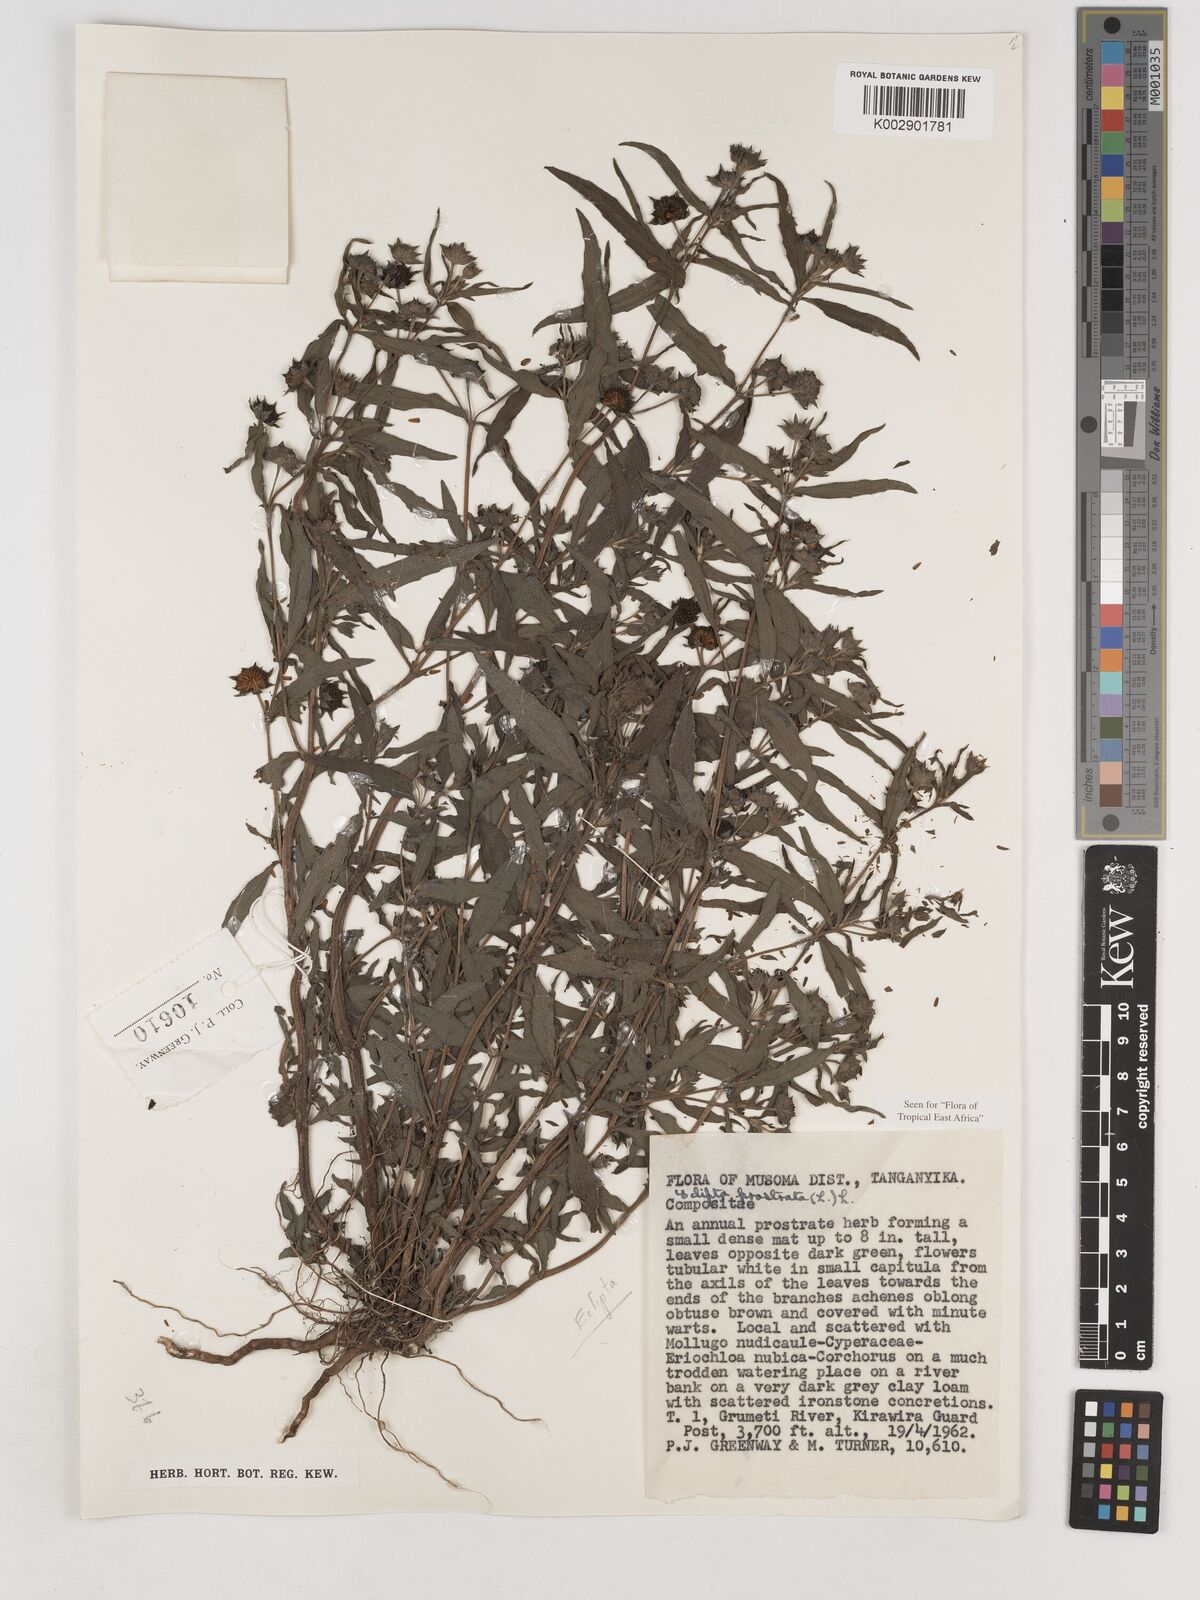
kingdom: Plantae
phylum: Tracheophyta
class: Magnoliopsida
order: Asterales
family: Asteraceae
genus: Eclipta
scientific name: Eclipta alba
